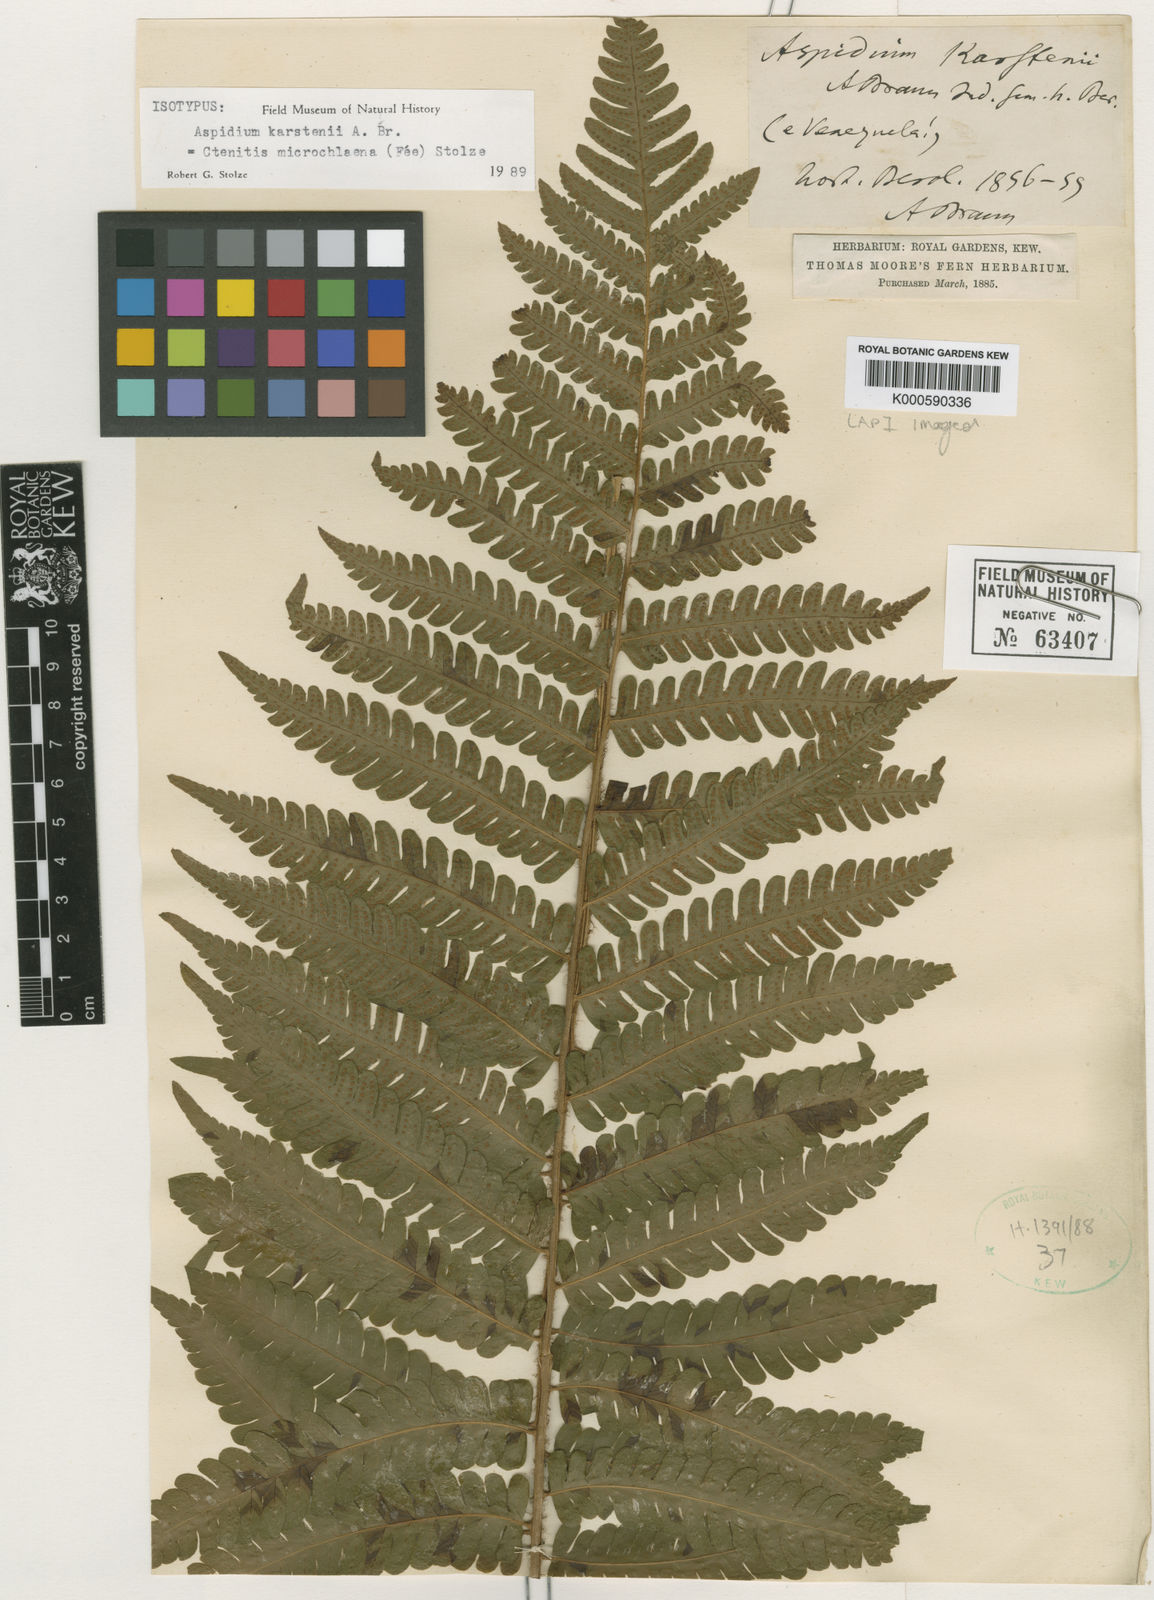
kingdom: Plantae
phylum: Tracheophyta
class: Polypodiopsida
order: Polypodiales
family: Dryopteridaceae
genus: Ctenitis
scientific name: Ctenitis
